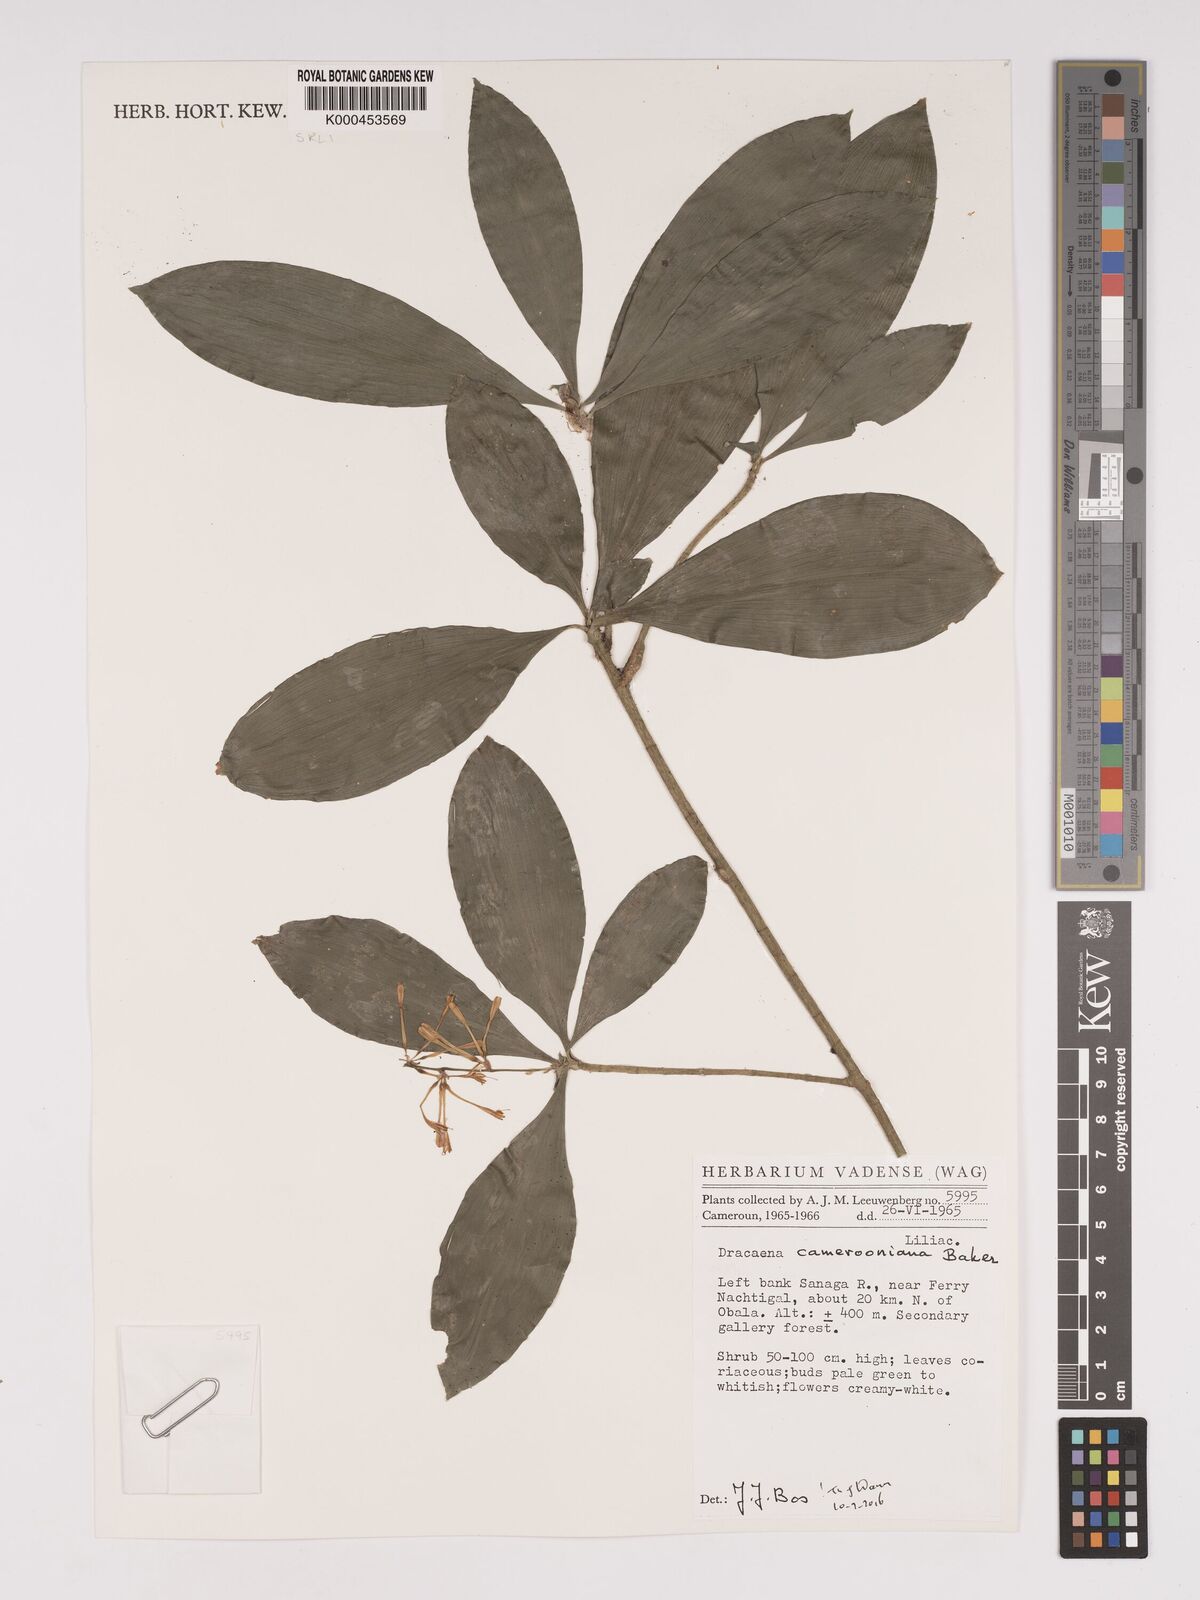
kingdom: Plantae
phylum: Tracheophyta
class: Liliopsida
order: Asparagales
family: Asparagaceae
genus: Dracaena
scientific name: Dracaena camerooniana
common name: Dragon tree
